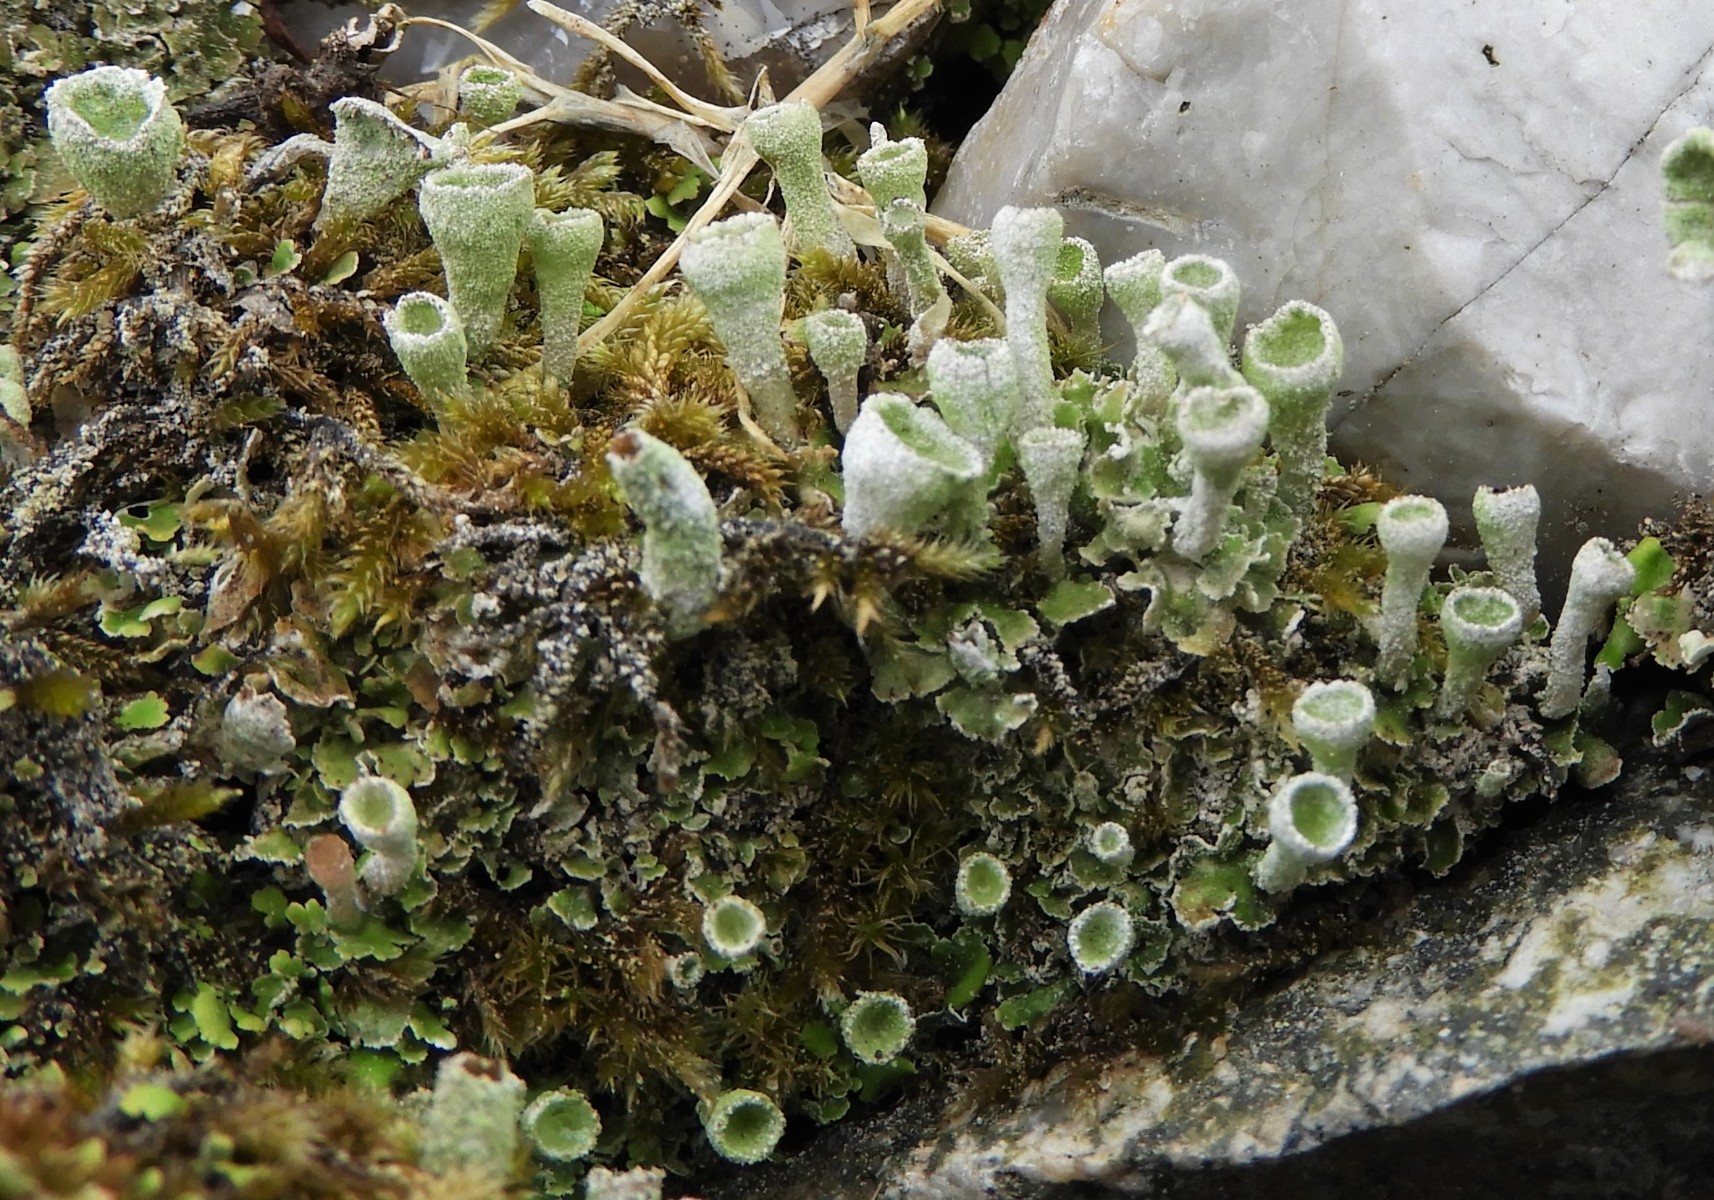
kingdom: Fungi
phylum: Ascomycota
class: Lecanoromycetes
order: Lecanorales
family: Cladoniaceae
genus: Cladonia
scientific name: Cladonia humilis
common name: lav bægerlav
